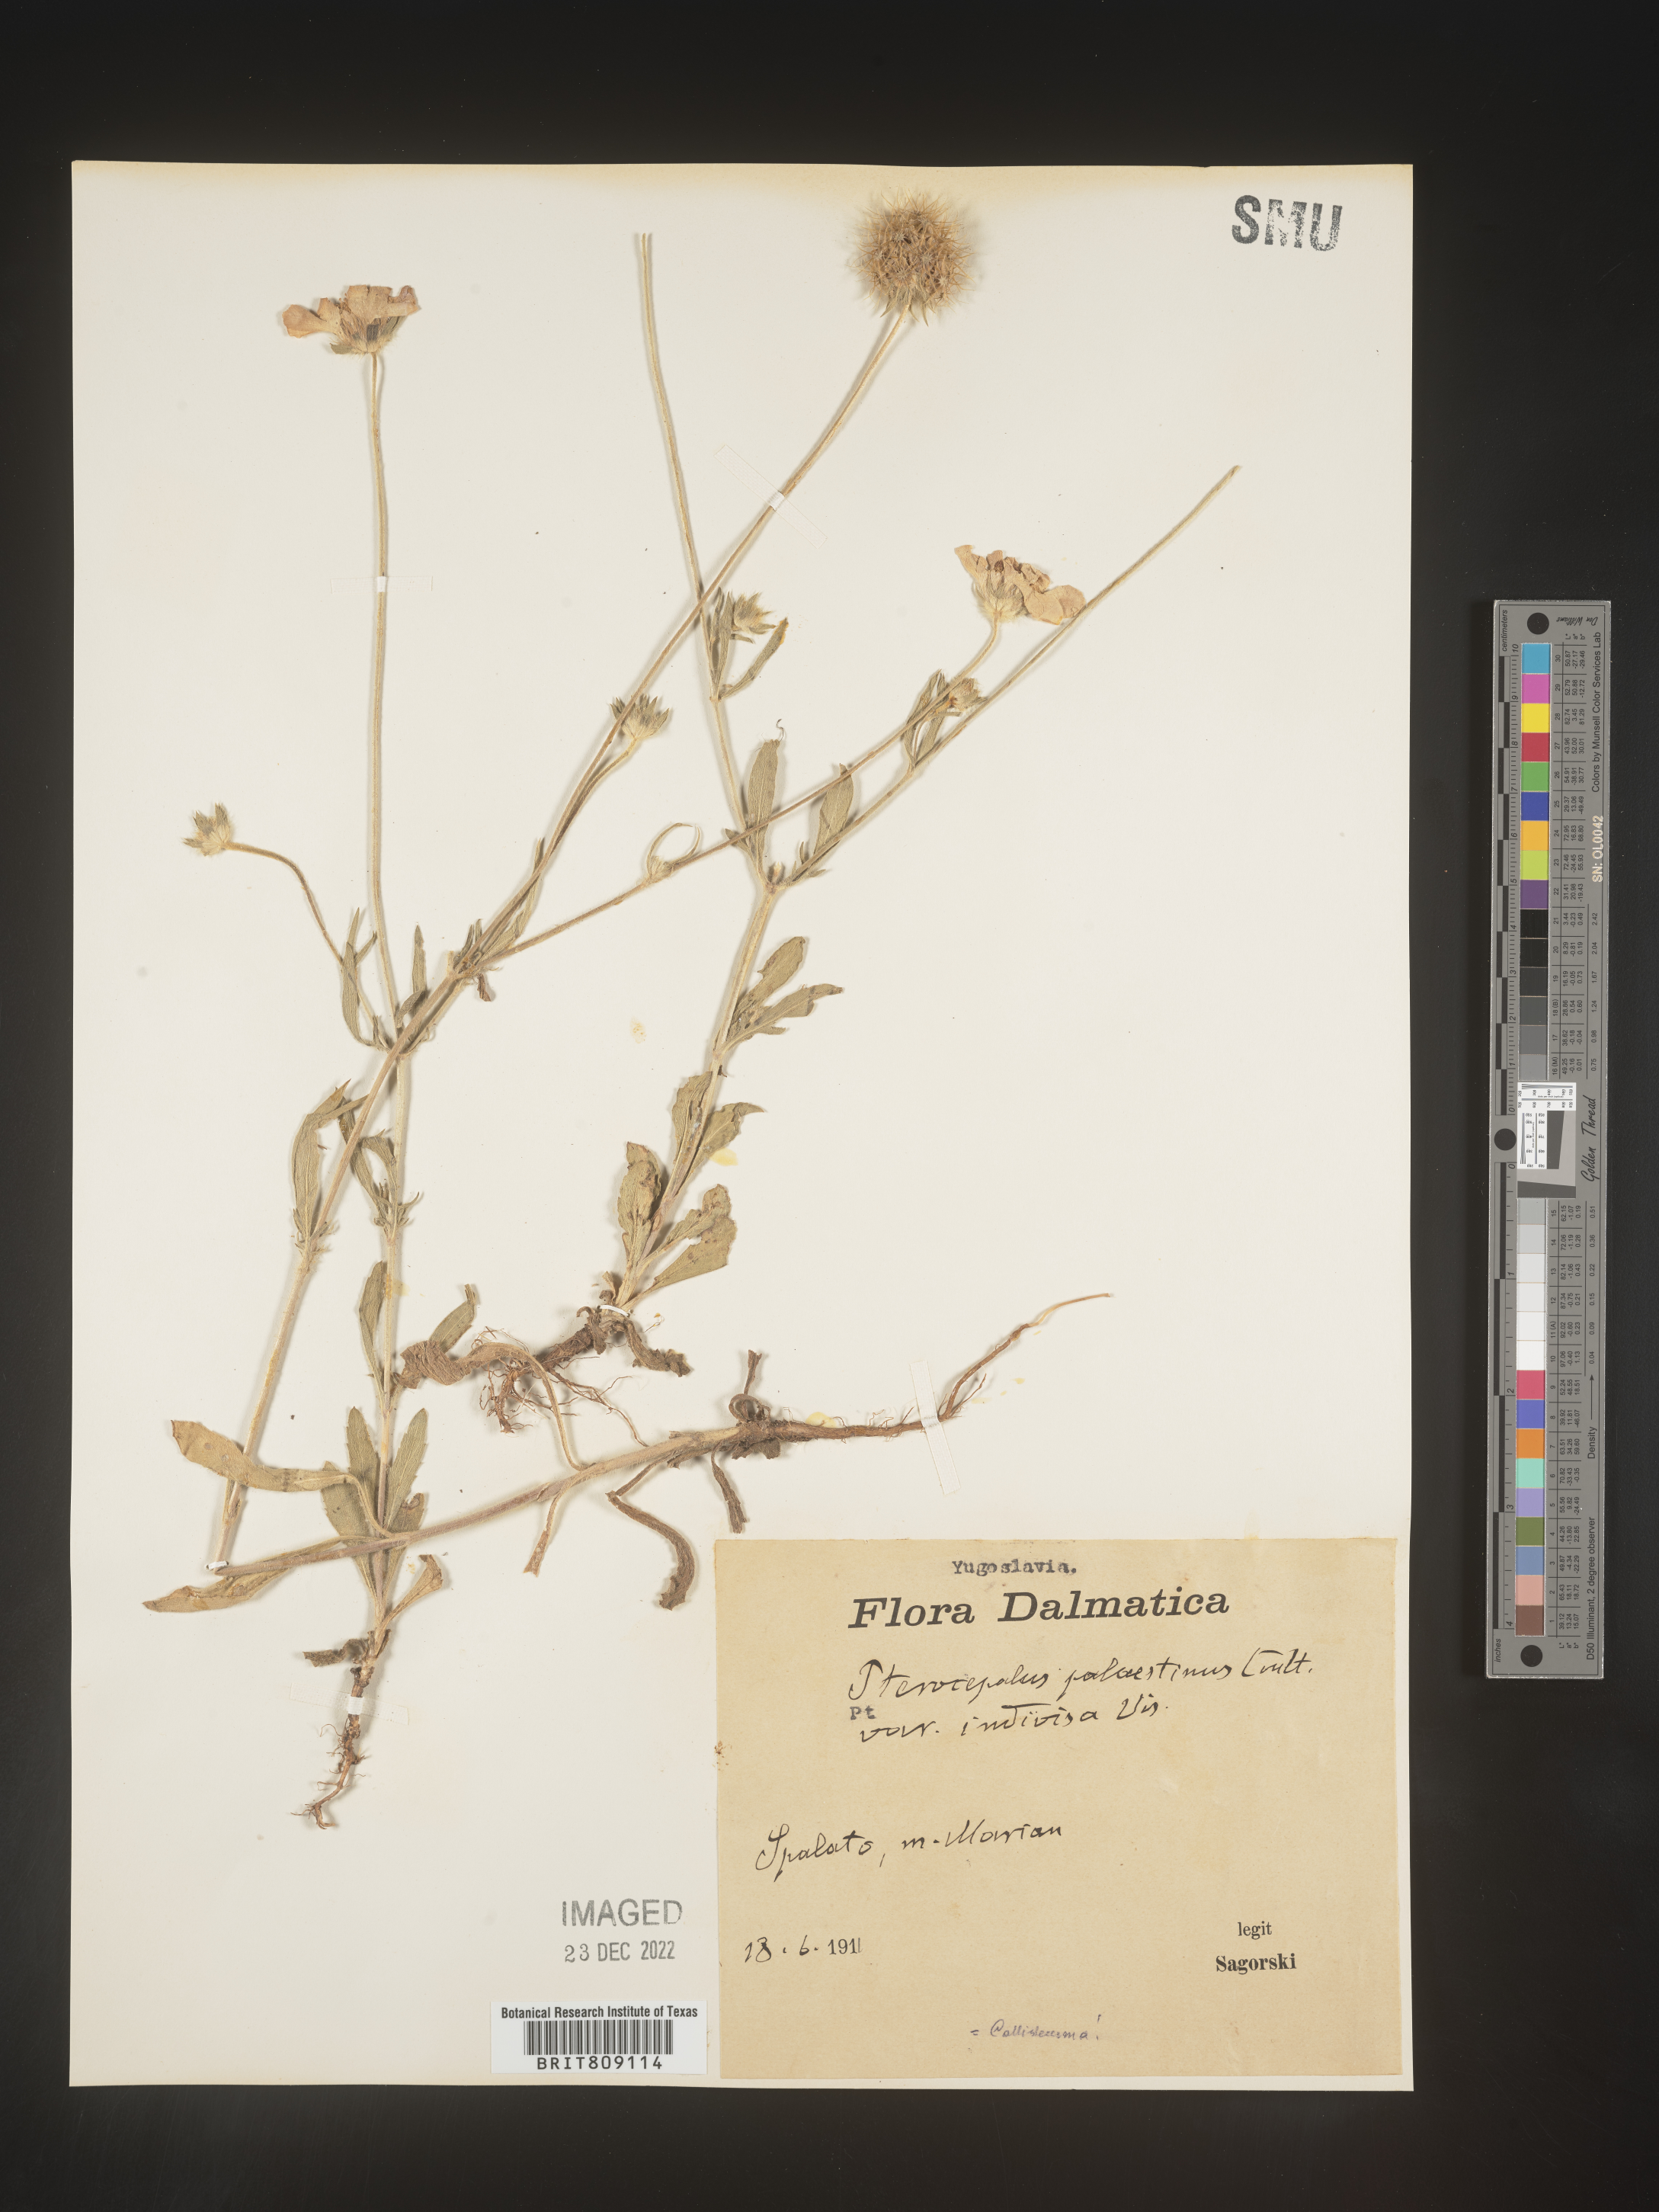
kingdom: Plantae
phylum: Tracheophyta
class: Magnoliopsida
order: Dipsacales
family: Caprifoliaceae
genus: Pterocephalus
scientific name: Pterocephalus
